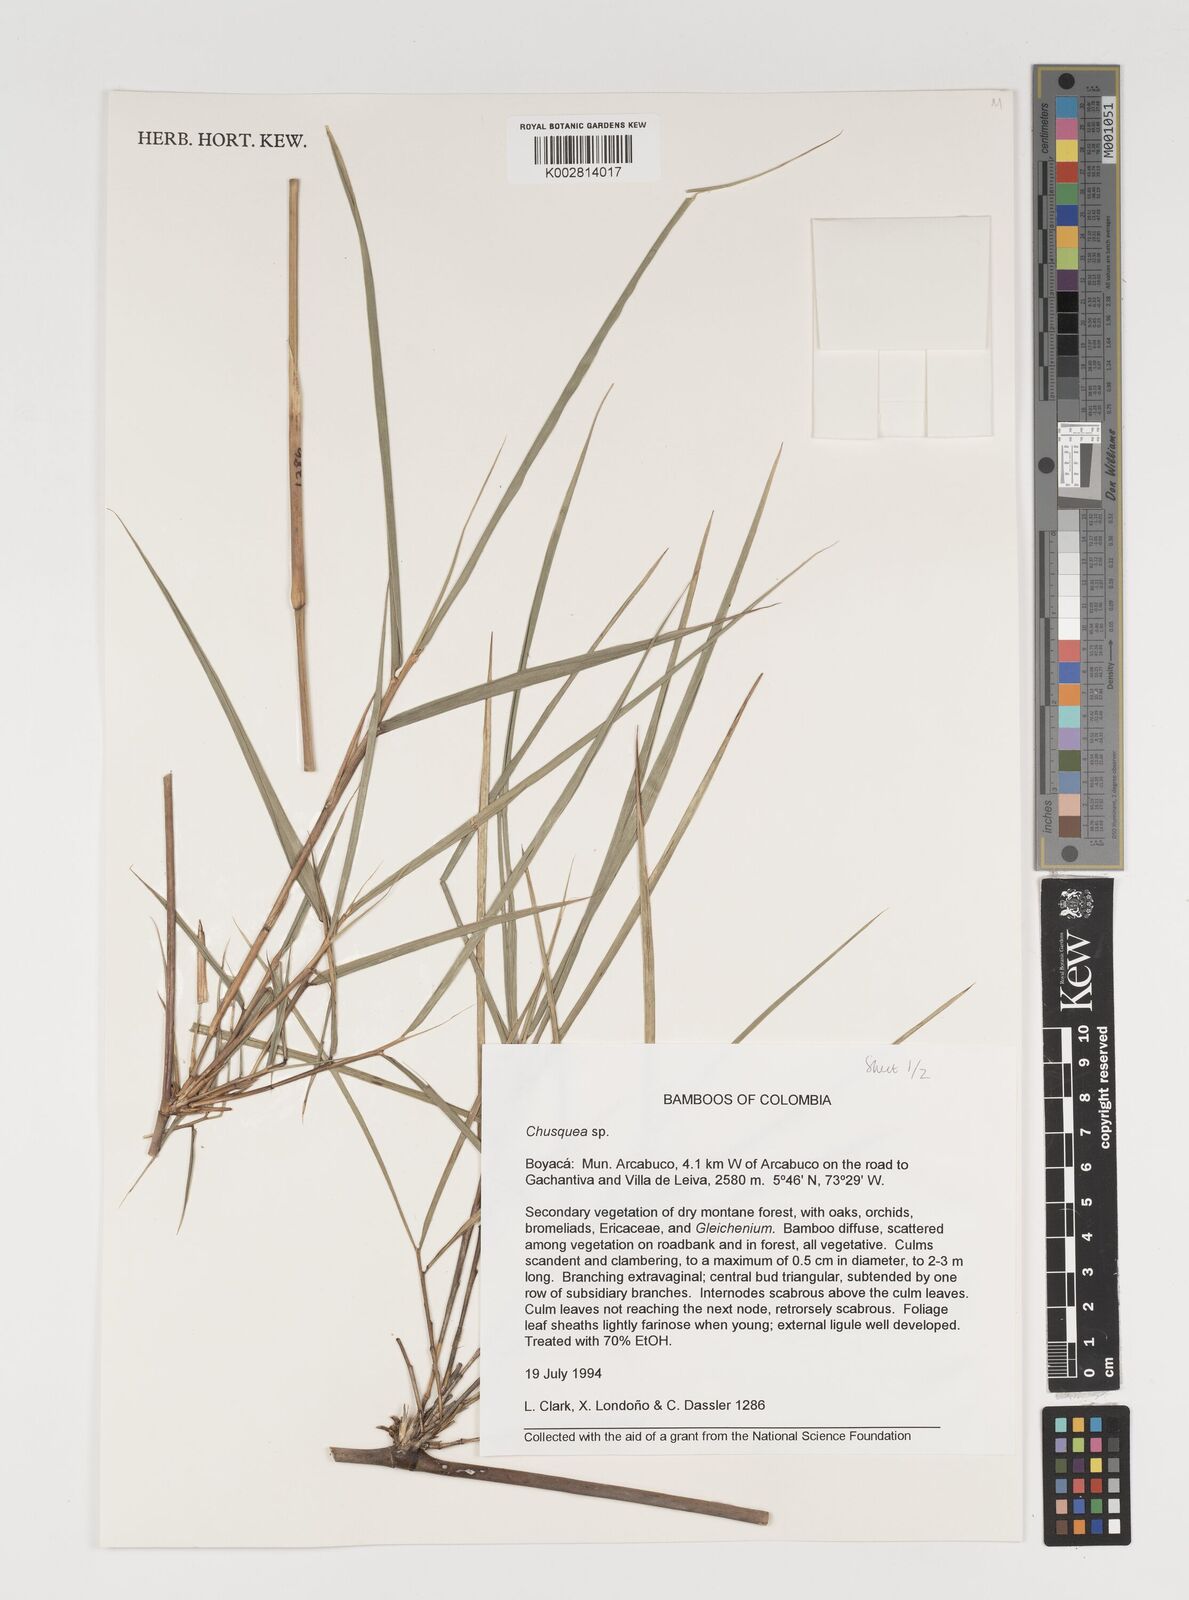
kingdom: Plantae
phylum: Tracheophyta
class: Liliopsida
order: Poales
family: Poaceae
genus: Chusquea
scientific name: Chusquea
